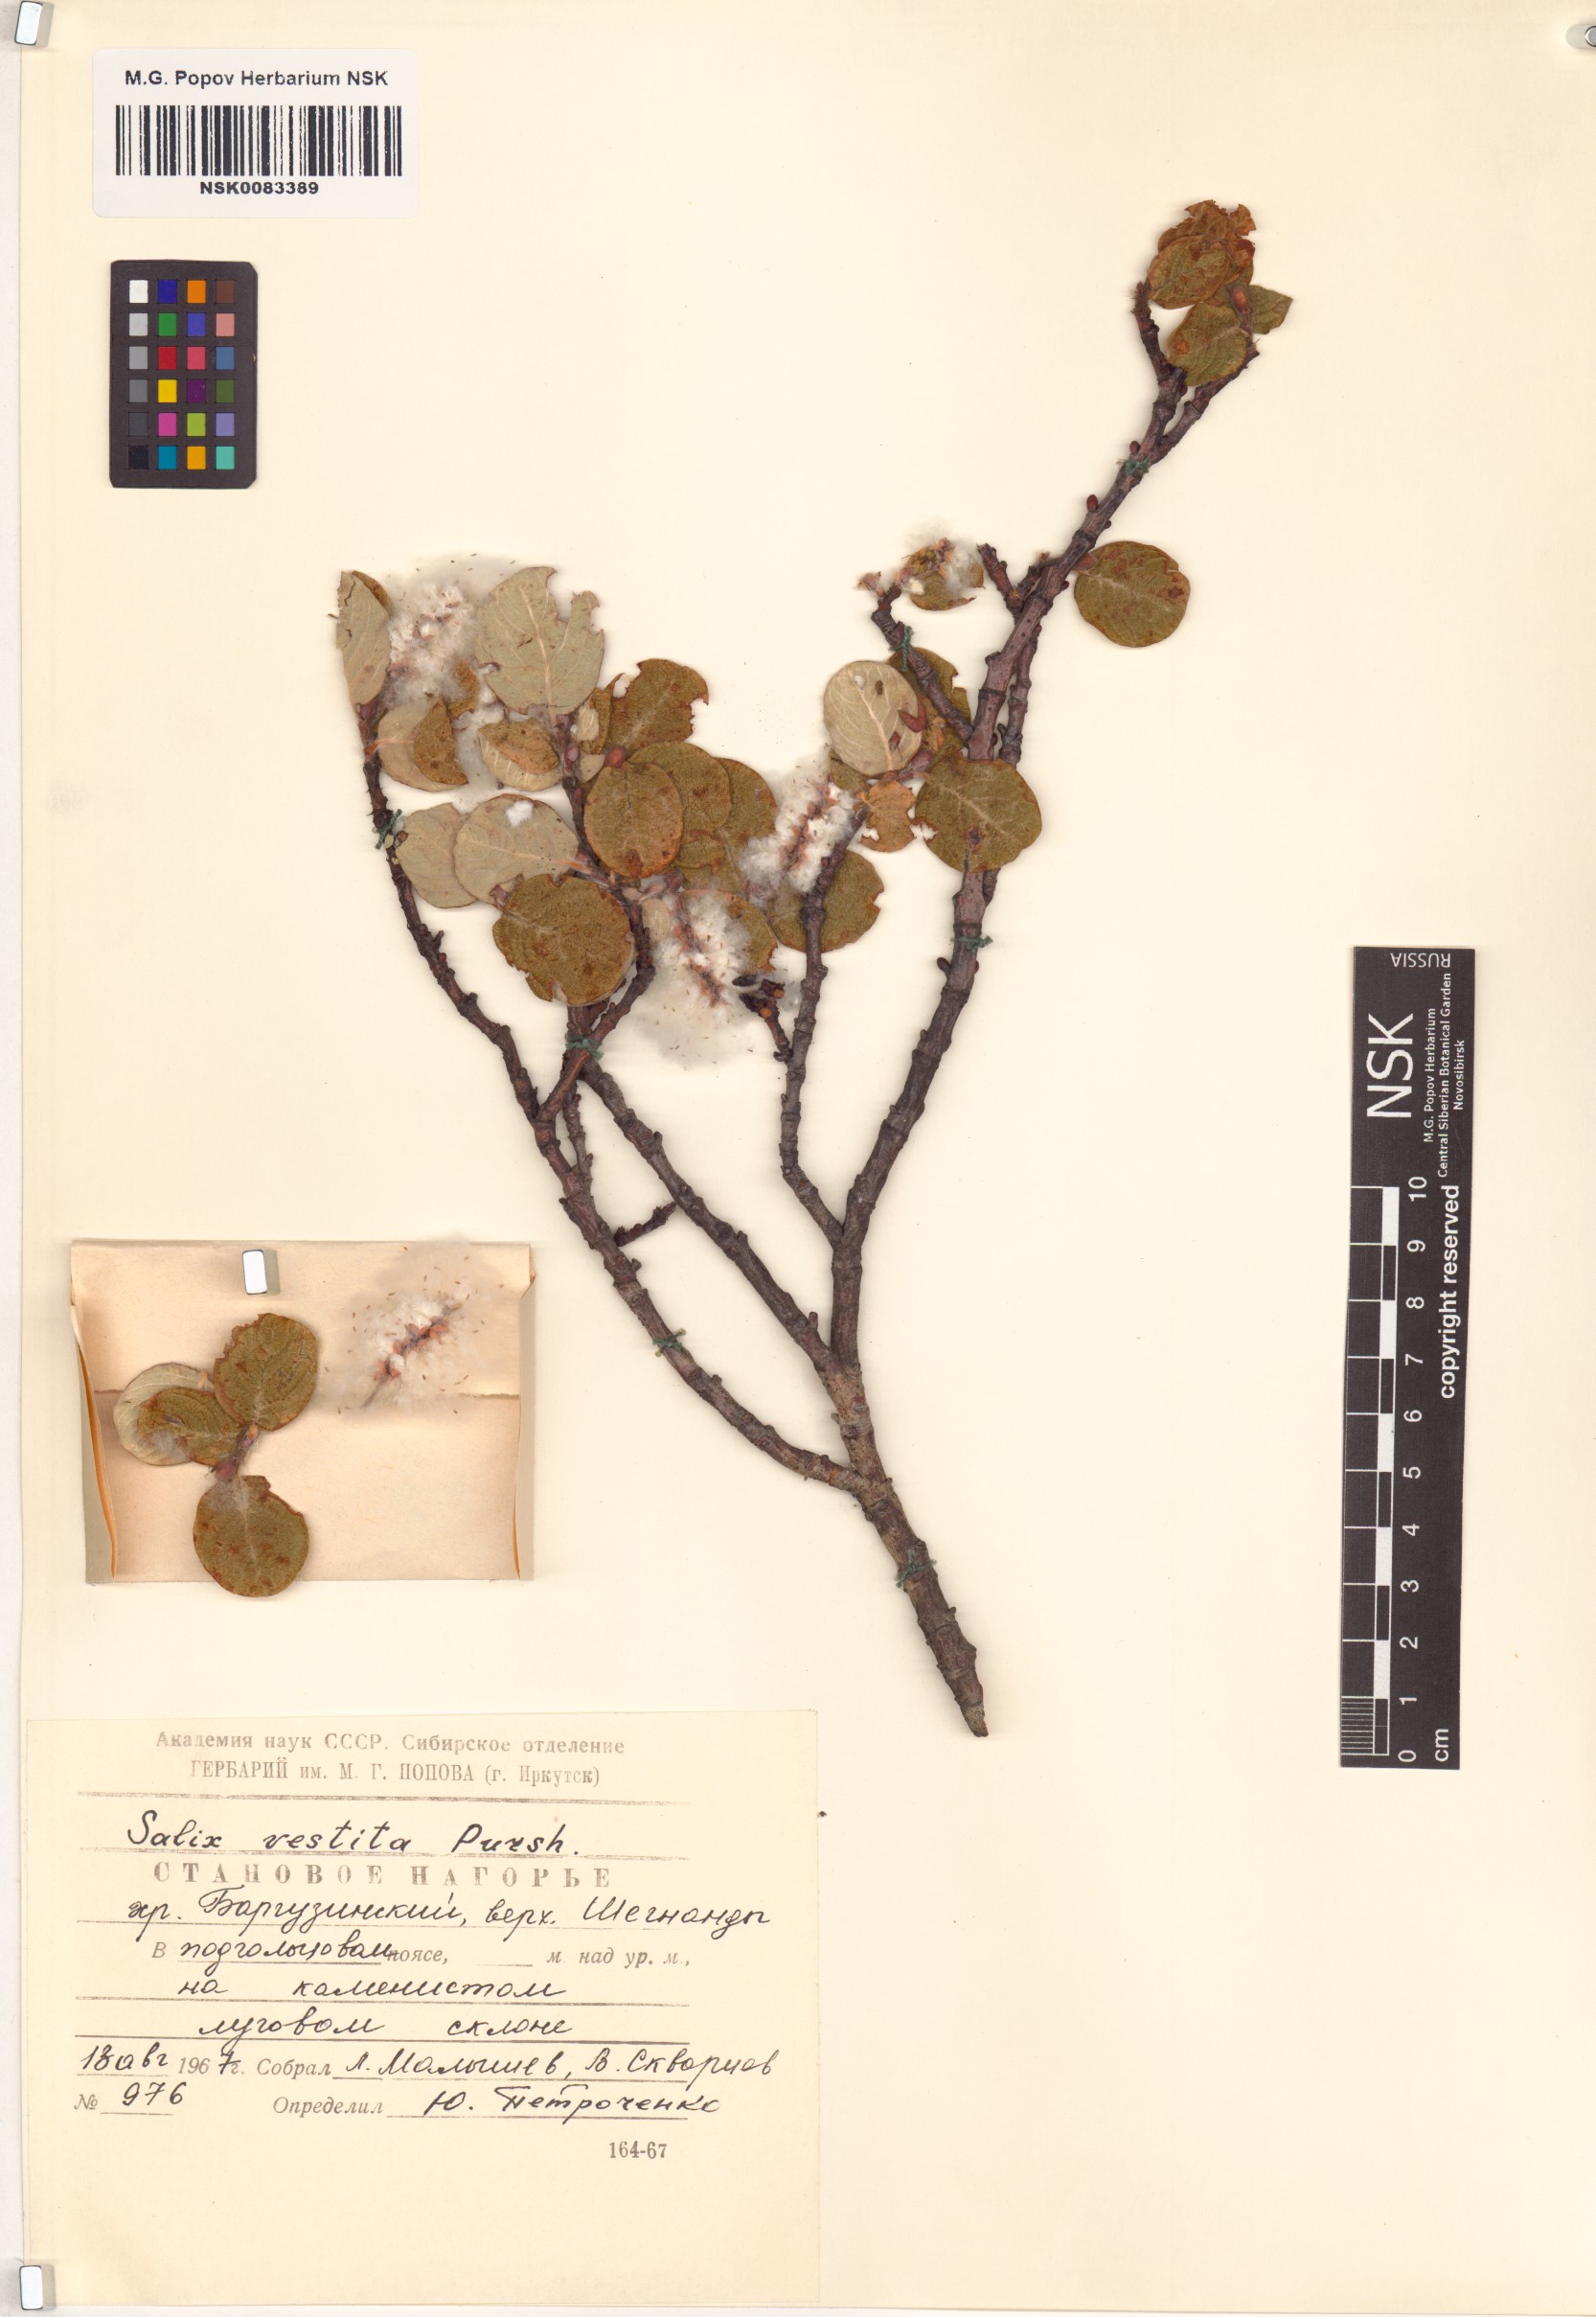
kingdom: Plantae
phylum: Tracheophyta
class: Magnoliopsida
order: Malpighiales
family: Salicaceae
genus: Salix
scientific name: Salix vestita
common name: Hairy willow
